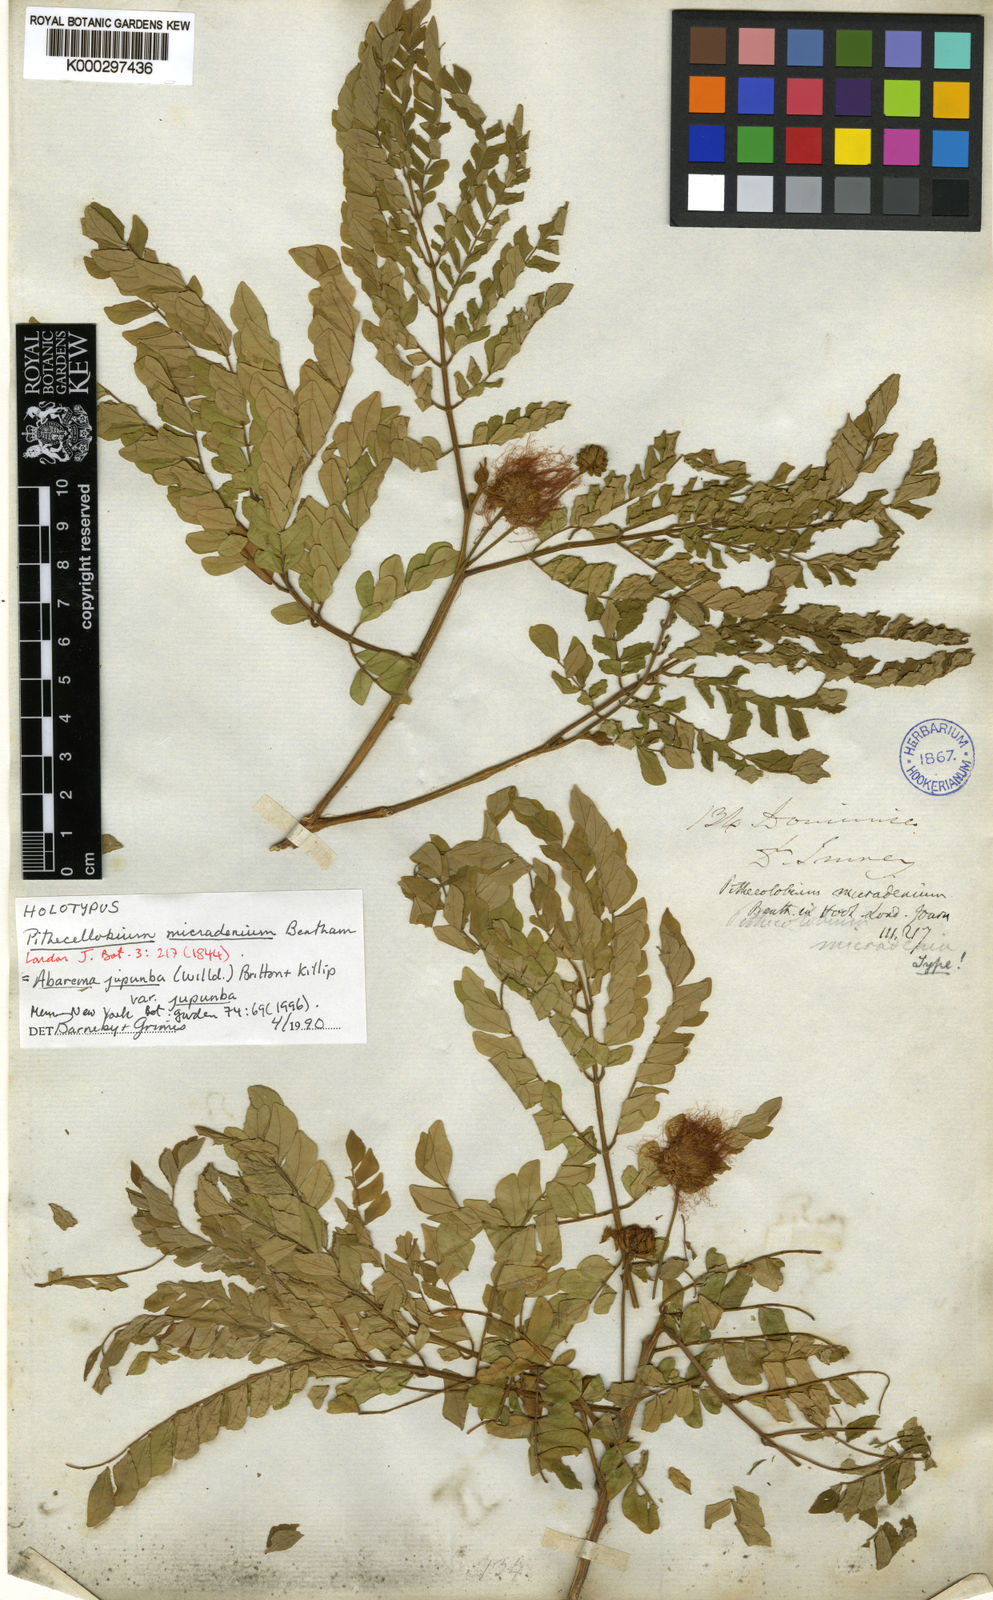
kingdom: Plantae
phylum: Tracheophyta
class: Magnoliopsida
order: Fabales
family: Fabaceae
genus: Abarema
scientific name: Abarema
